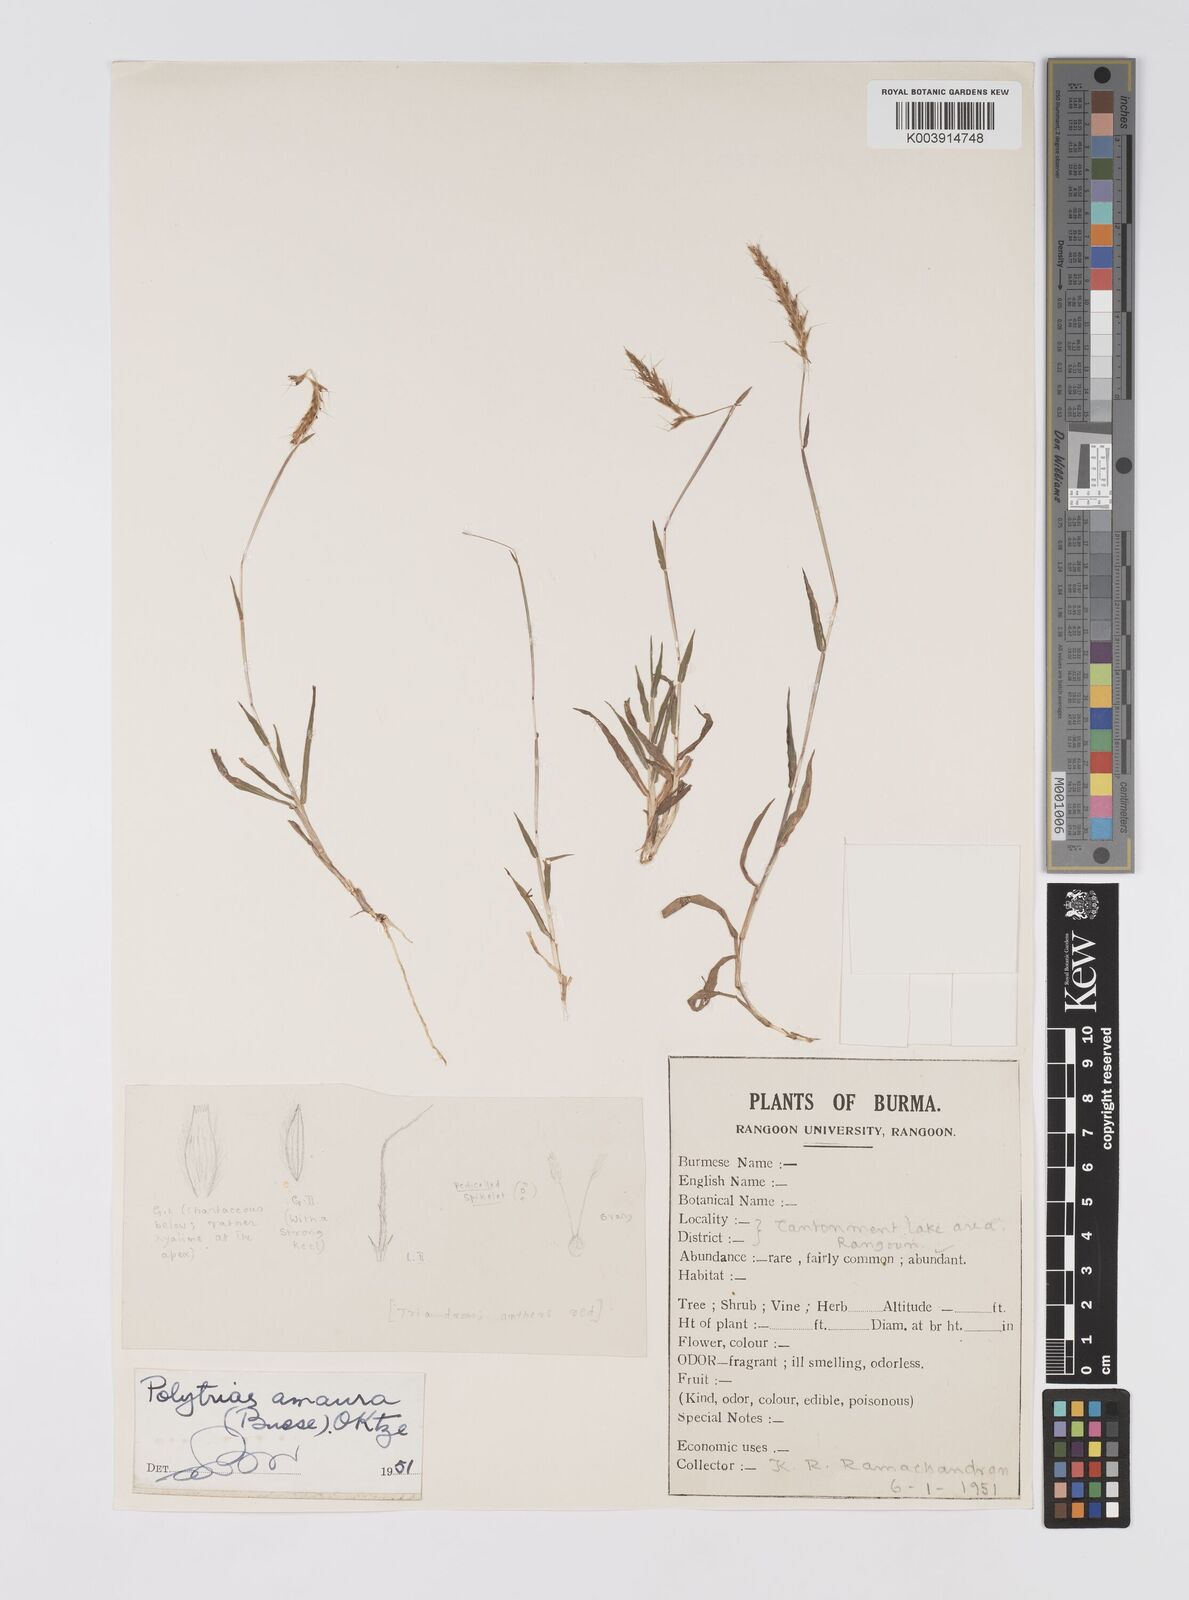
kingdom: Plantae
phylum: Tracheophyta
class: Liliopsida
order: Poales
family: Poaceae
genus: Polytrias
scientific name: Polytrias indica
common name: Indian murainagrass
